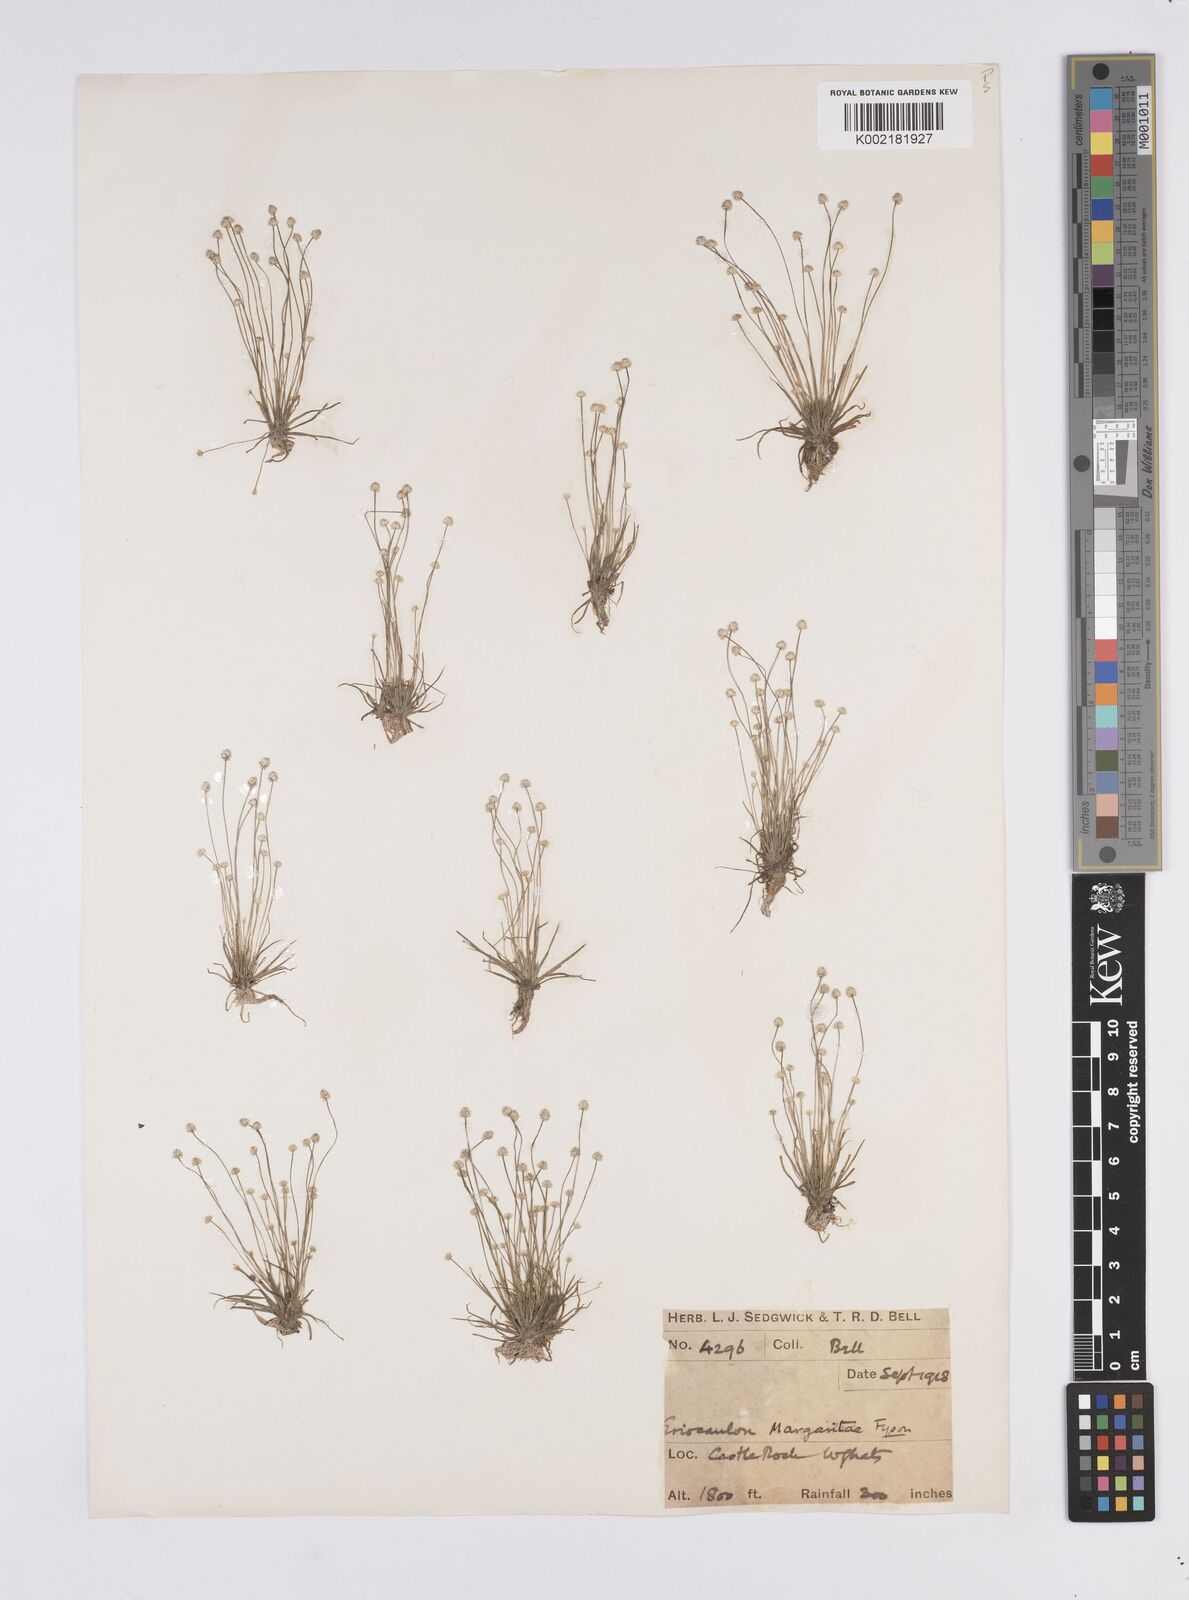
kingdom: Plantae
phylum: Tracheophyta
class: Liliopsida
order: Poales
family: Eriocaulaceae
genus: Eriocaulon
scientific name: Eriocaulon margaretae
